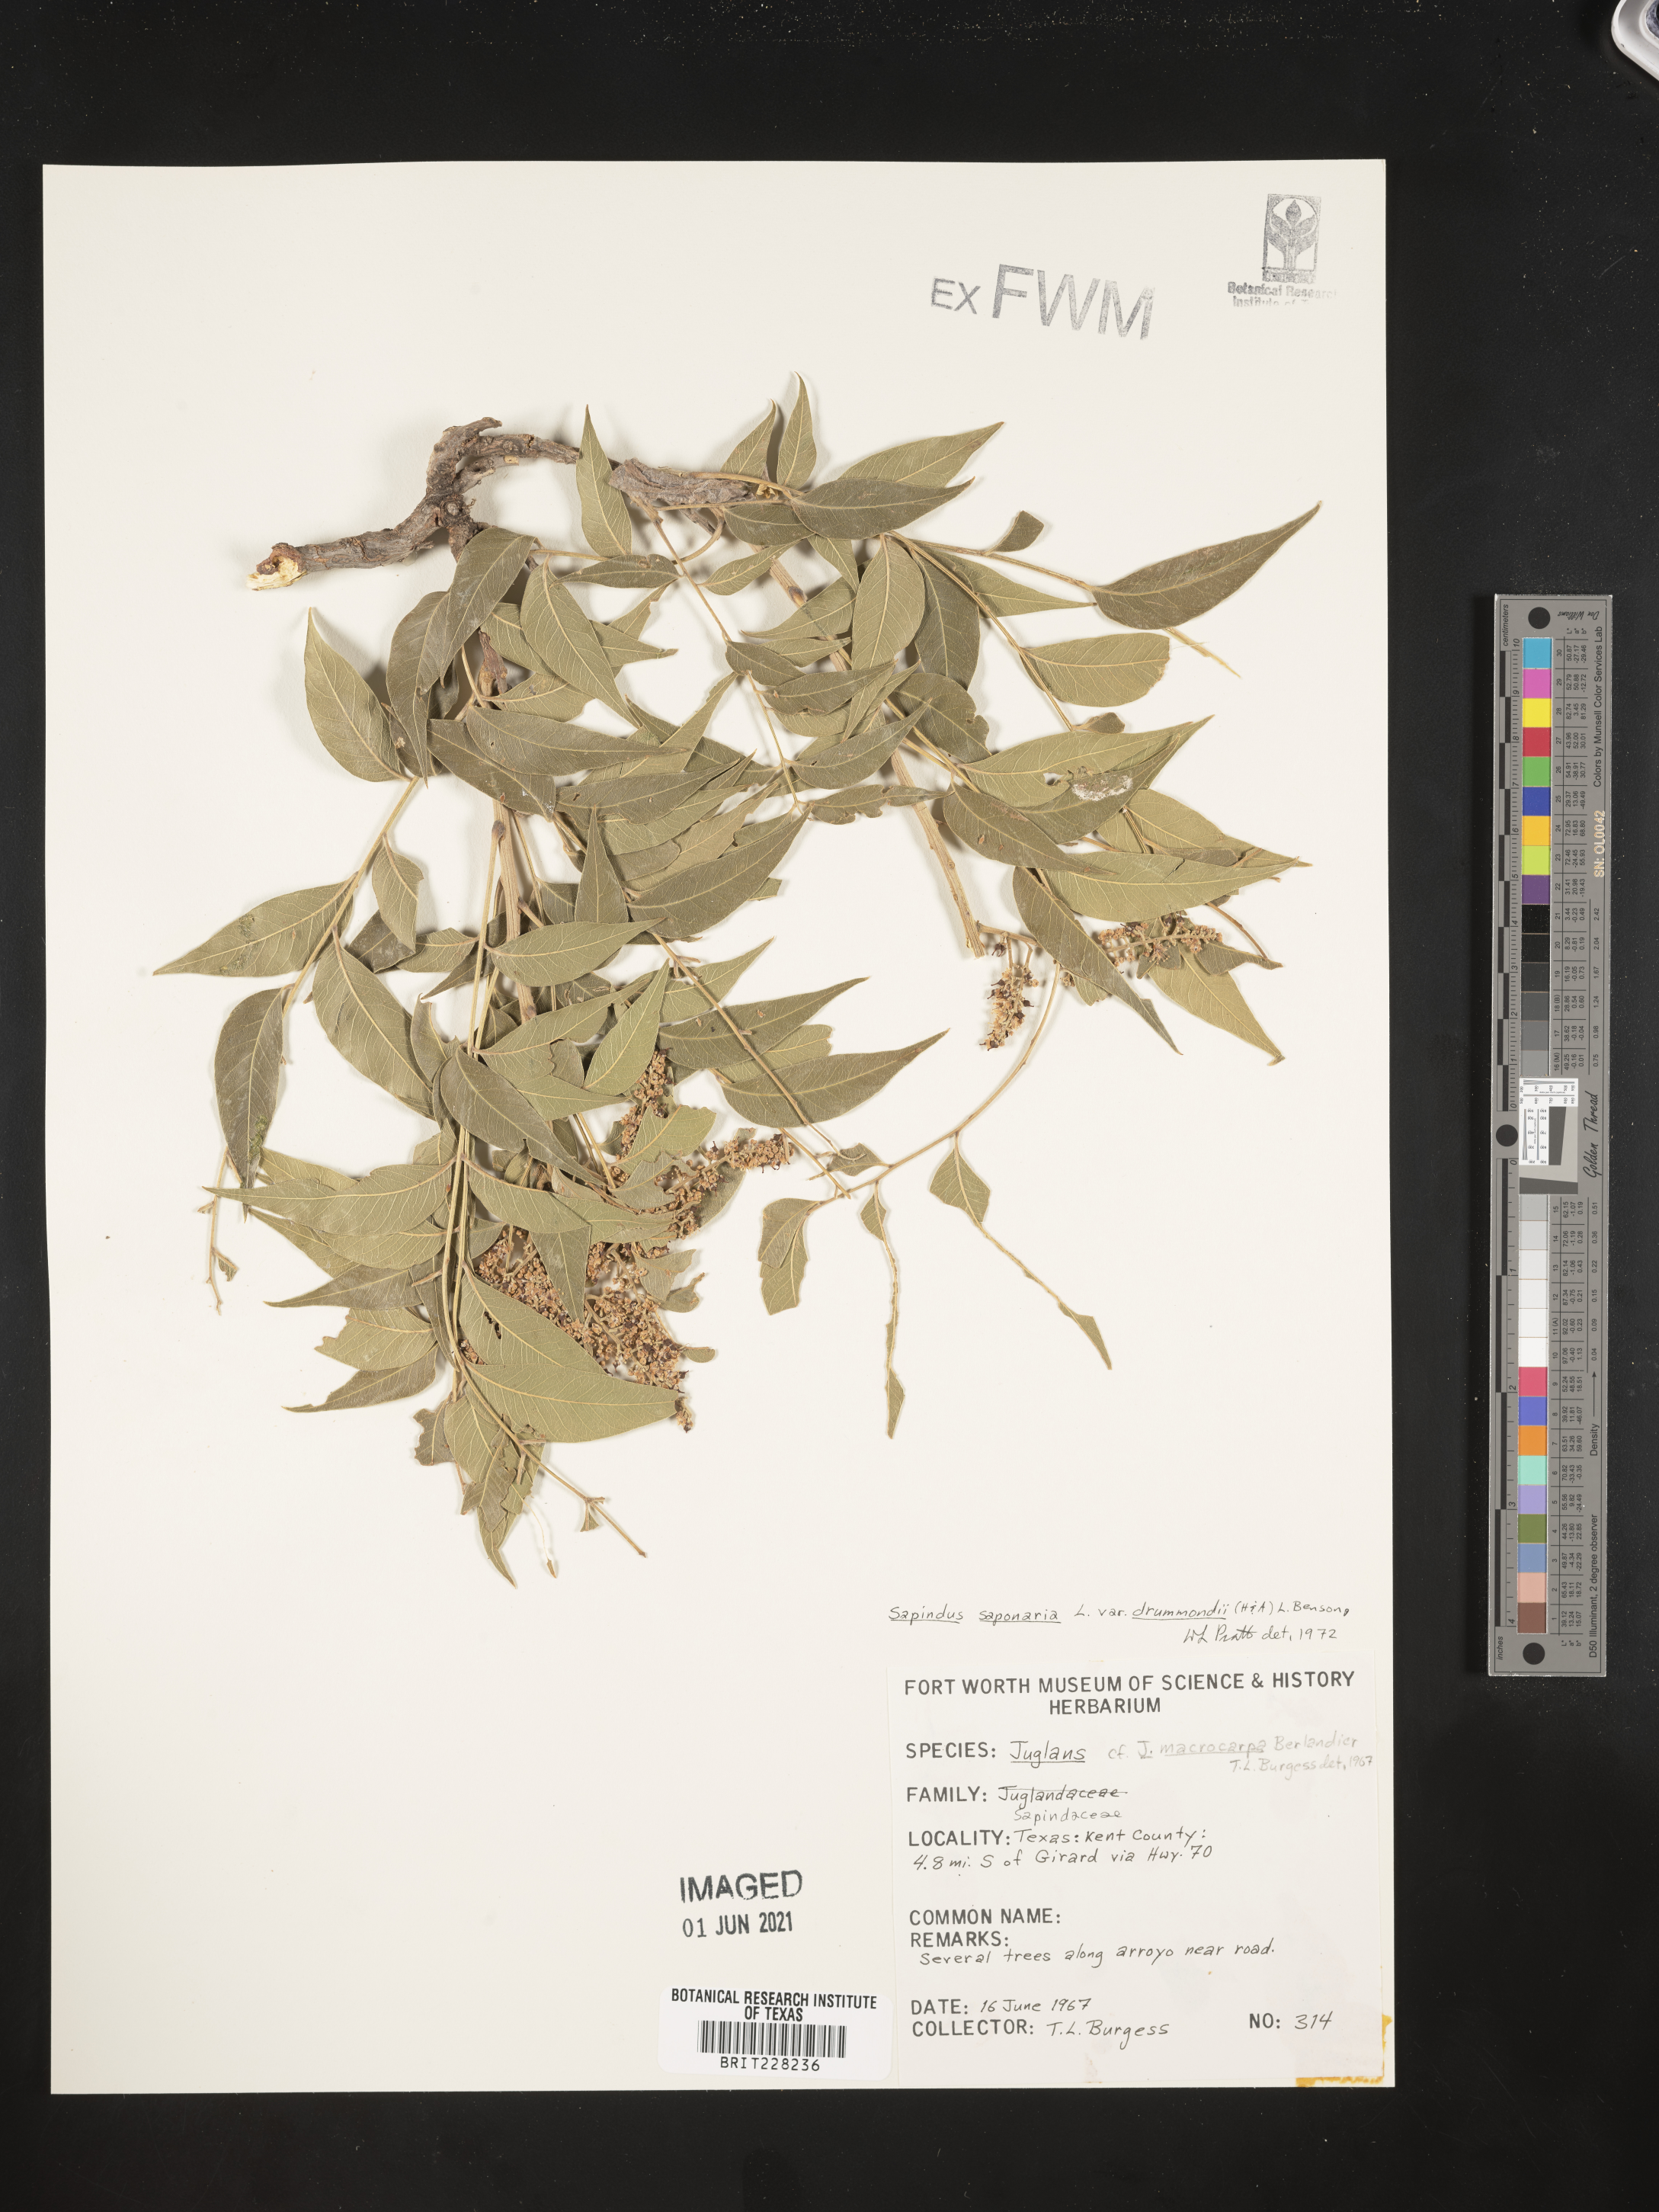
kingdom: Plantae
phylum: Tracheophyta
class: Magnoliopsida
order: Sapindales
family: Sapindaceae
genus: Sapindus
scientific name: Sapindus drummondii
